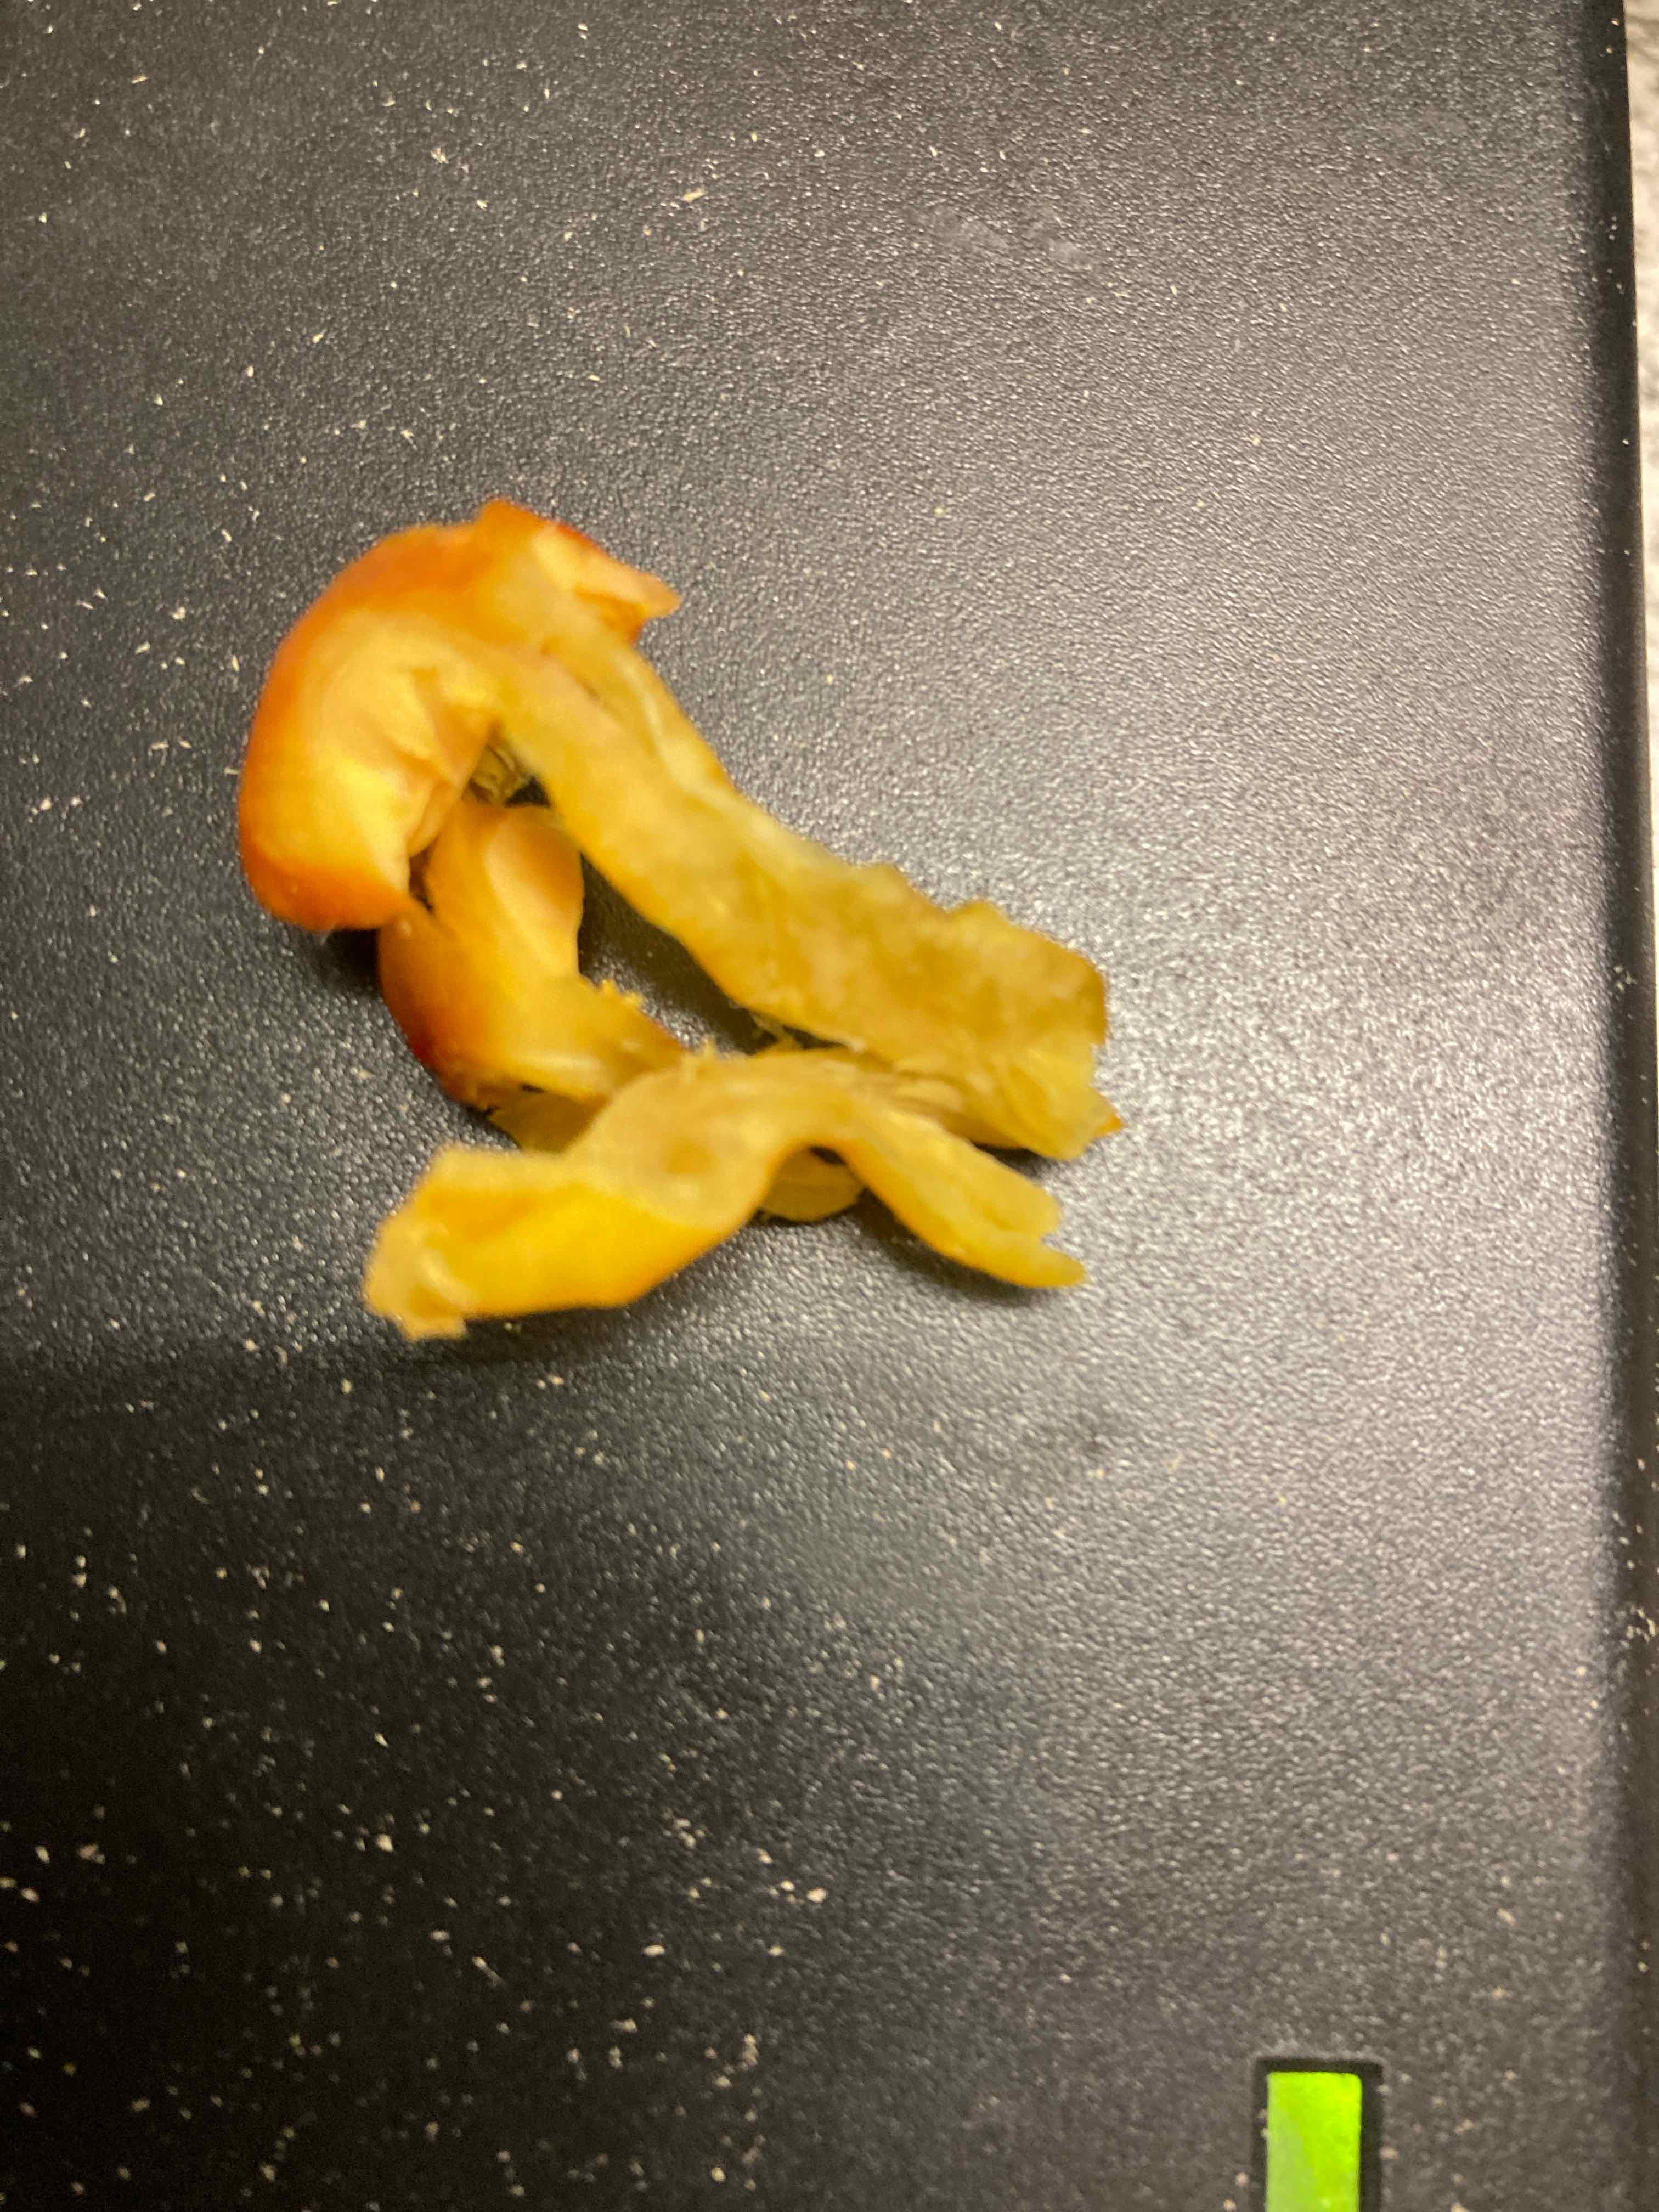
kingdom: Fungi
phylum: Basidiomycota
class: Agaricomycetes
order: Agaricales
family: Hygrophoraceae
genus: Hygrocybe
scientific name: Hygrocybe
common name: vokshat
